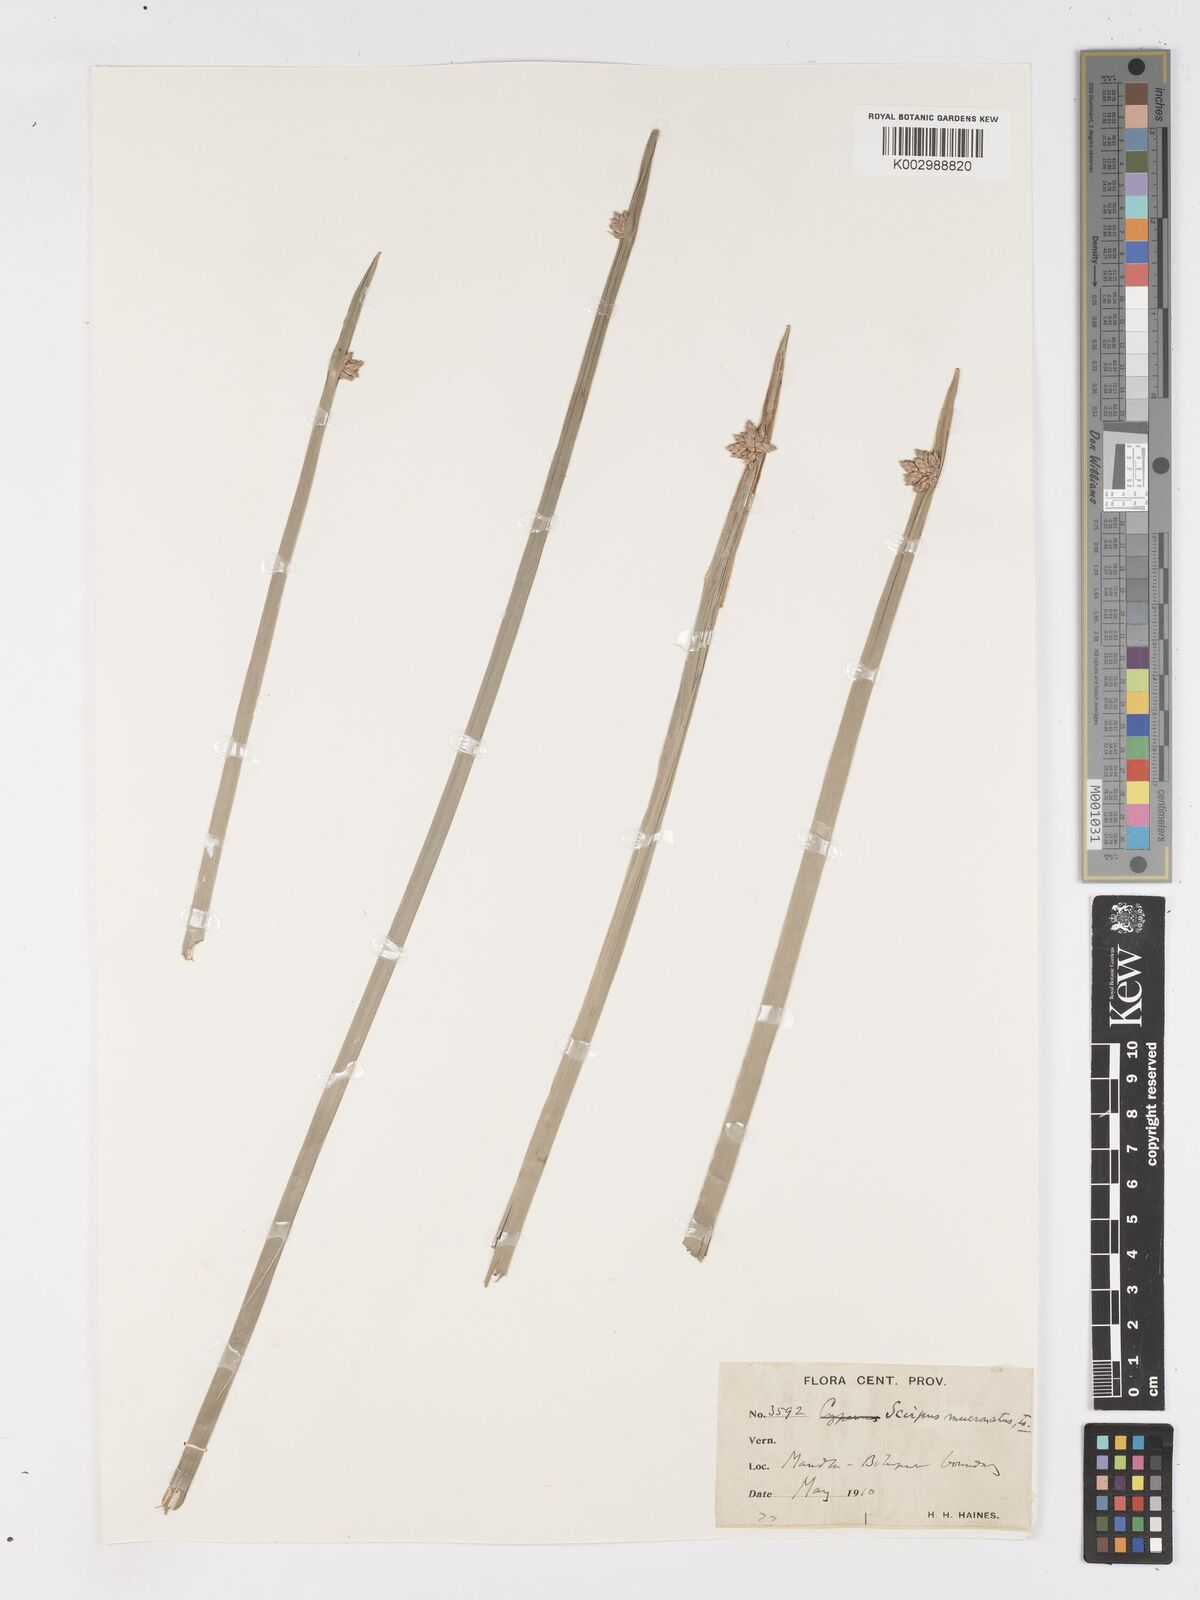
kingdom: Plantae
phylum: Tracheophyta
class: Liliopsida
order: Poales
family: Cyperaceae
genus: Schoenoplectiella
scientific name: Schoenoplectiella mucronata
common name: Bog bulrush
